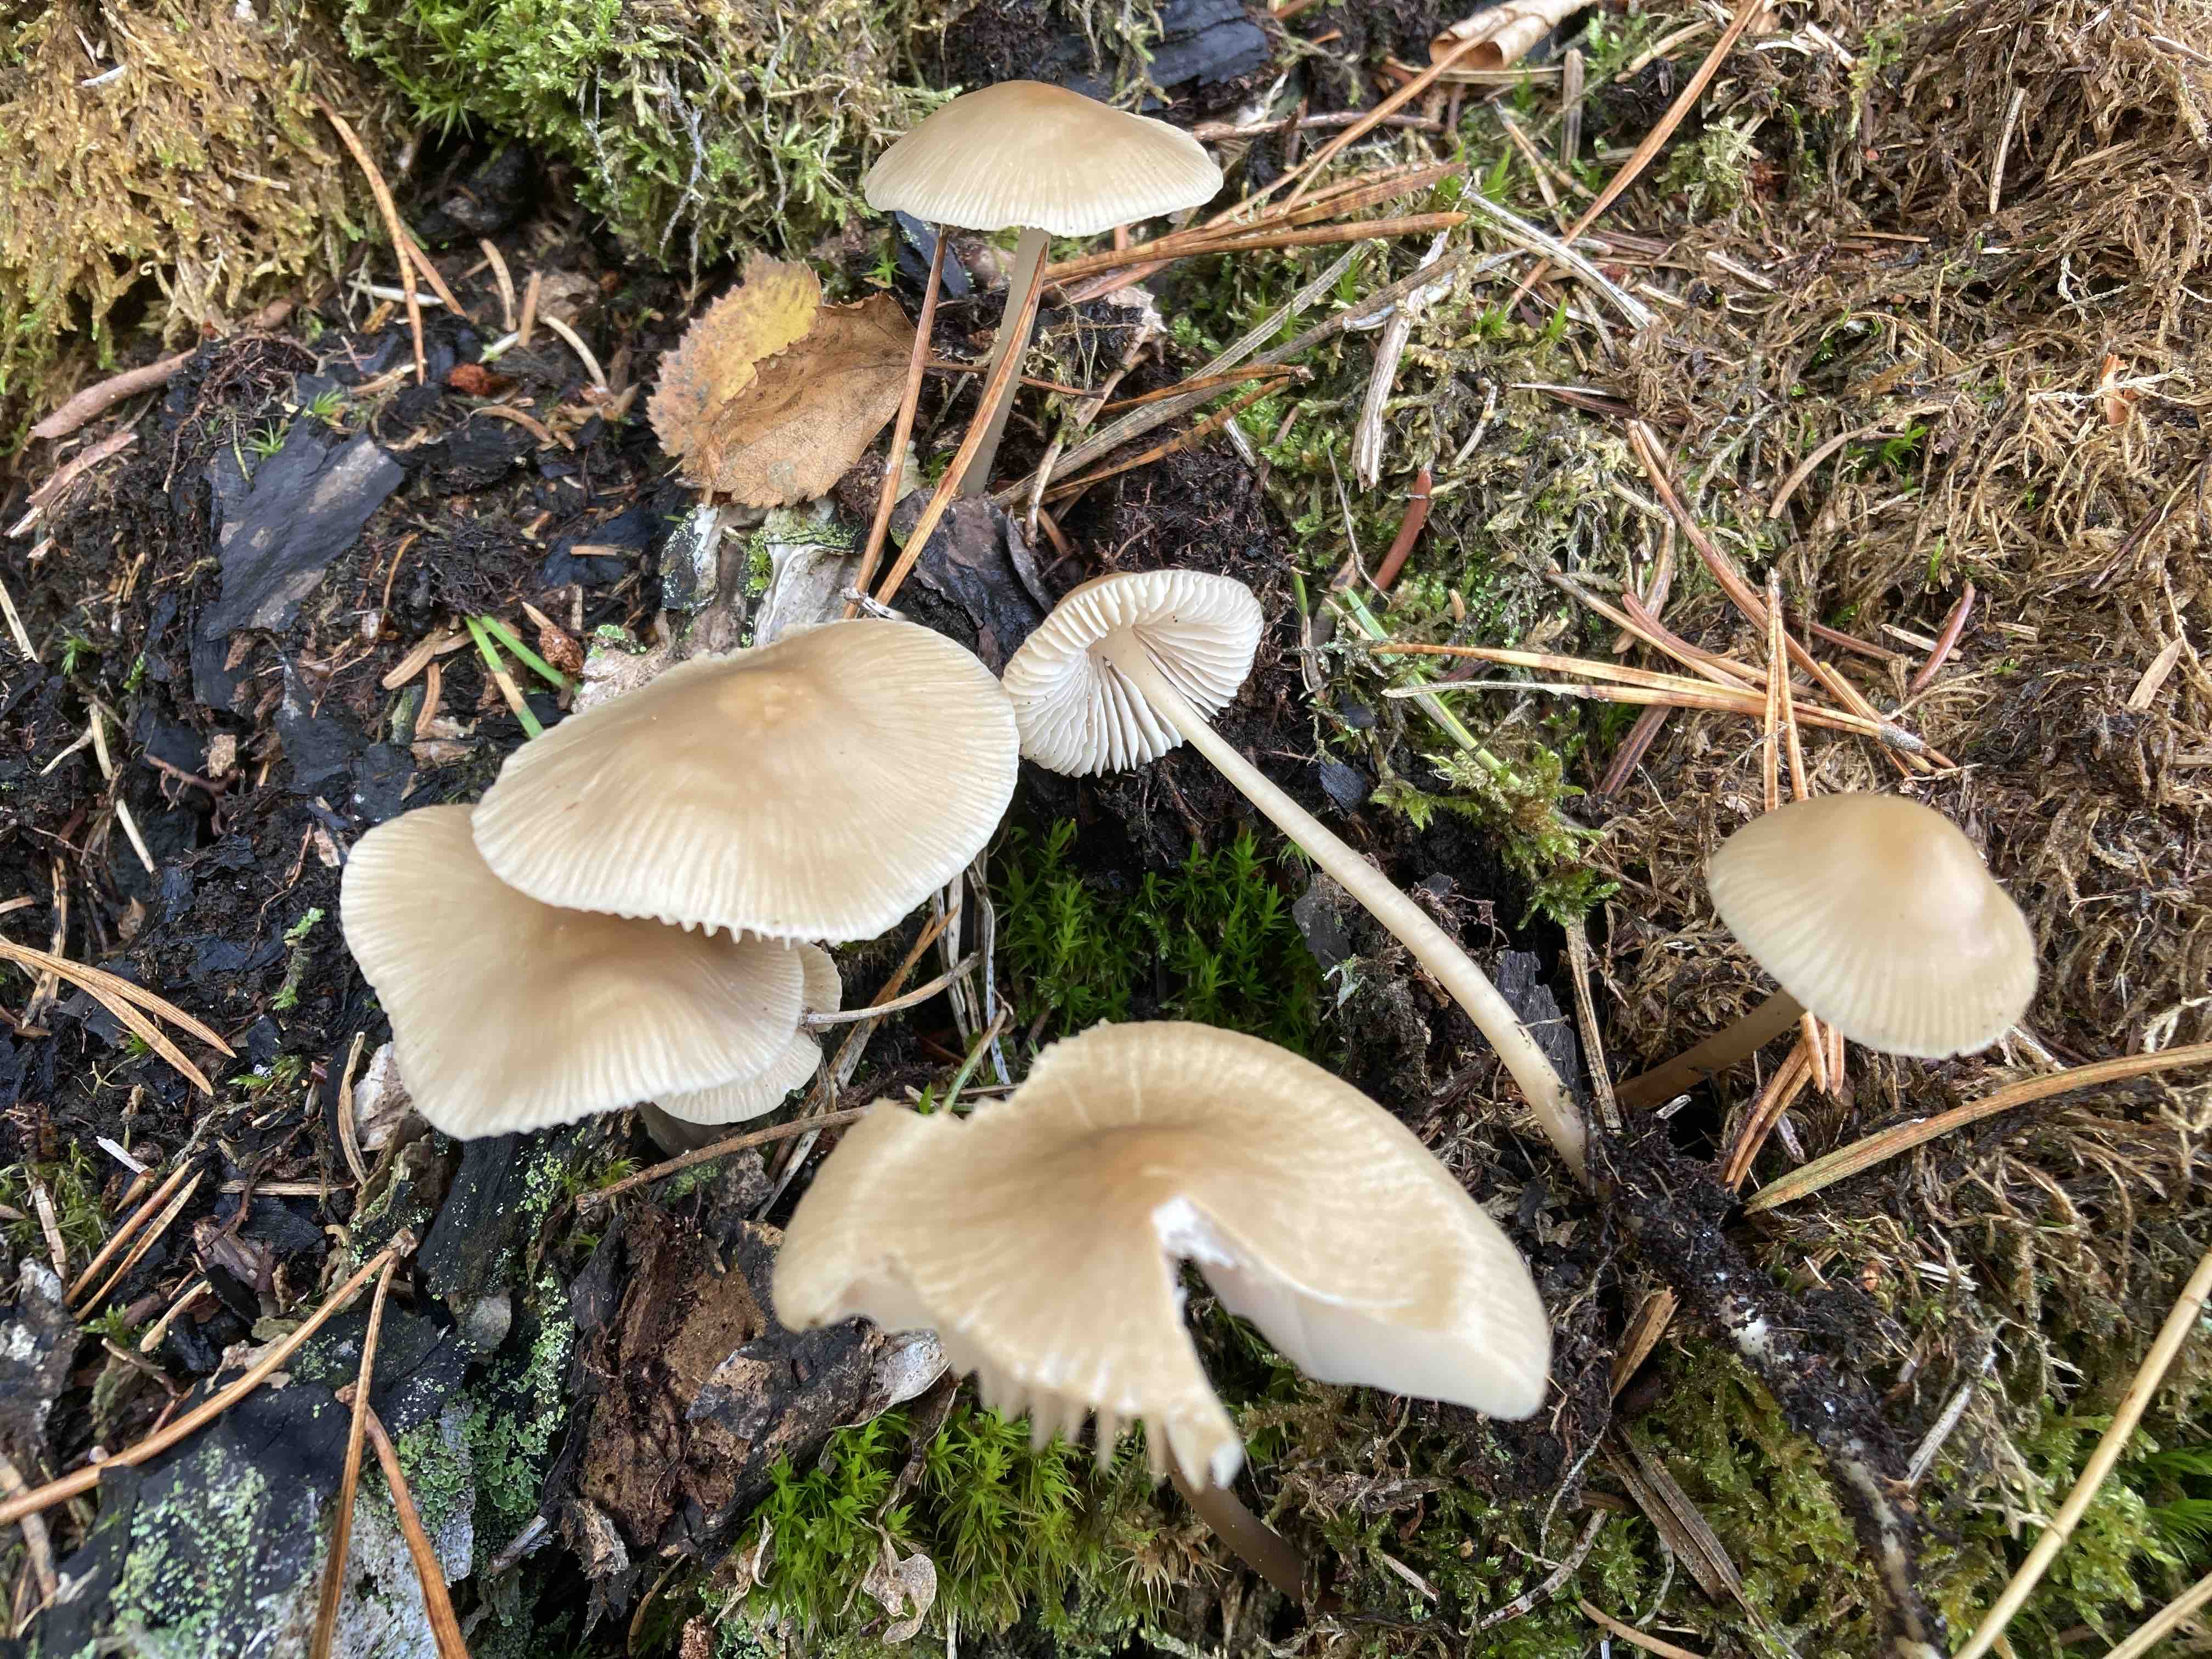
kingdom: Fungi
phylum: Basidiomycota
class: Agaricomycetes
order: Agaricales
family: Mycenaceae
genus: Mycena
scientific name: Mycena galericulata
